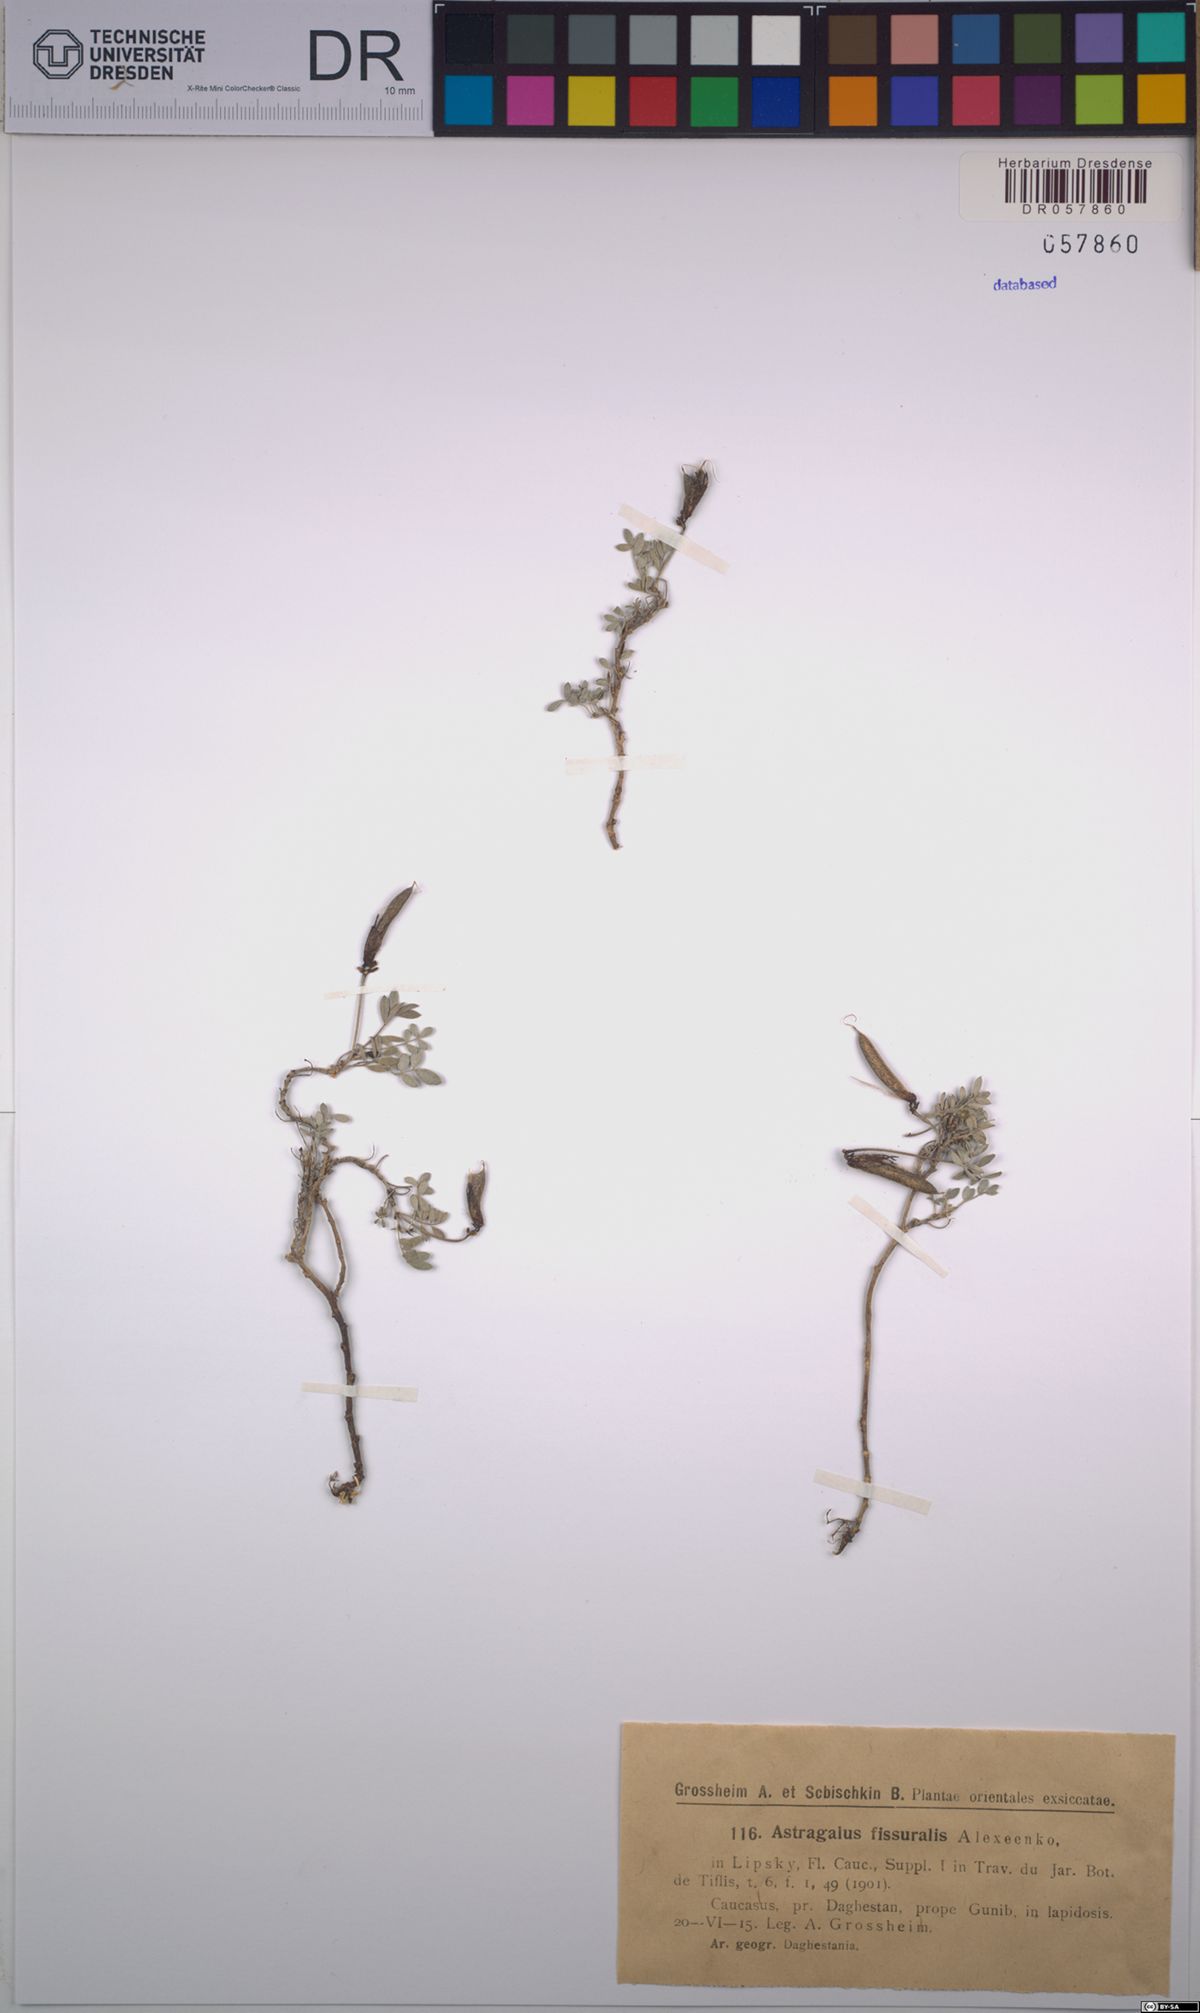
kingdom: Plantae
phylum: Tracheophyta
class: Magnoliopsida
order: Fabales
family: Fabaceae
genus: Astragalus
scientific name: Astragalus fissuralis
